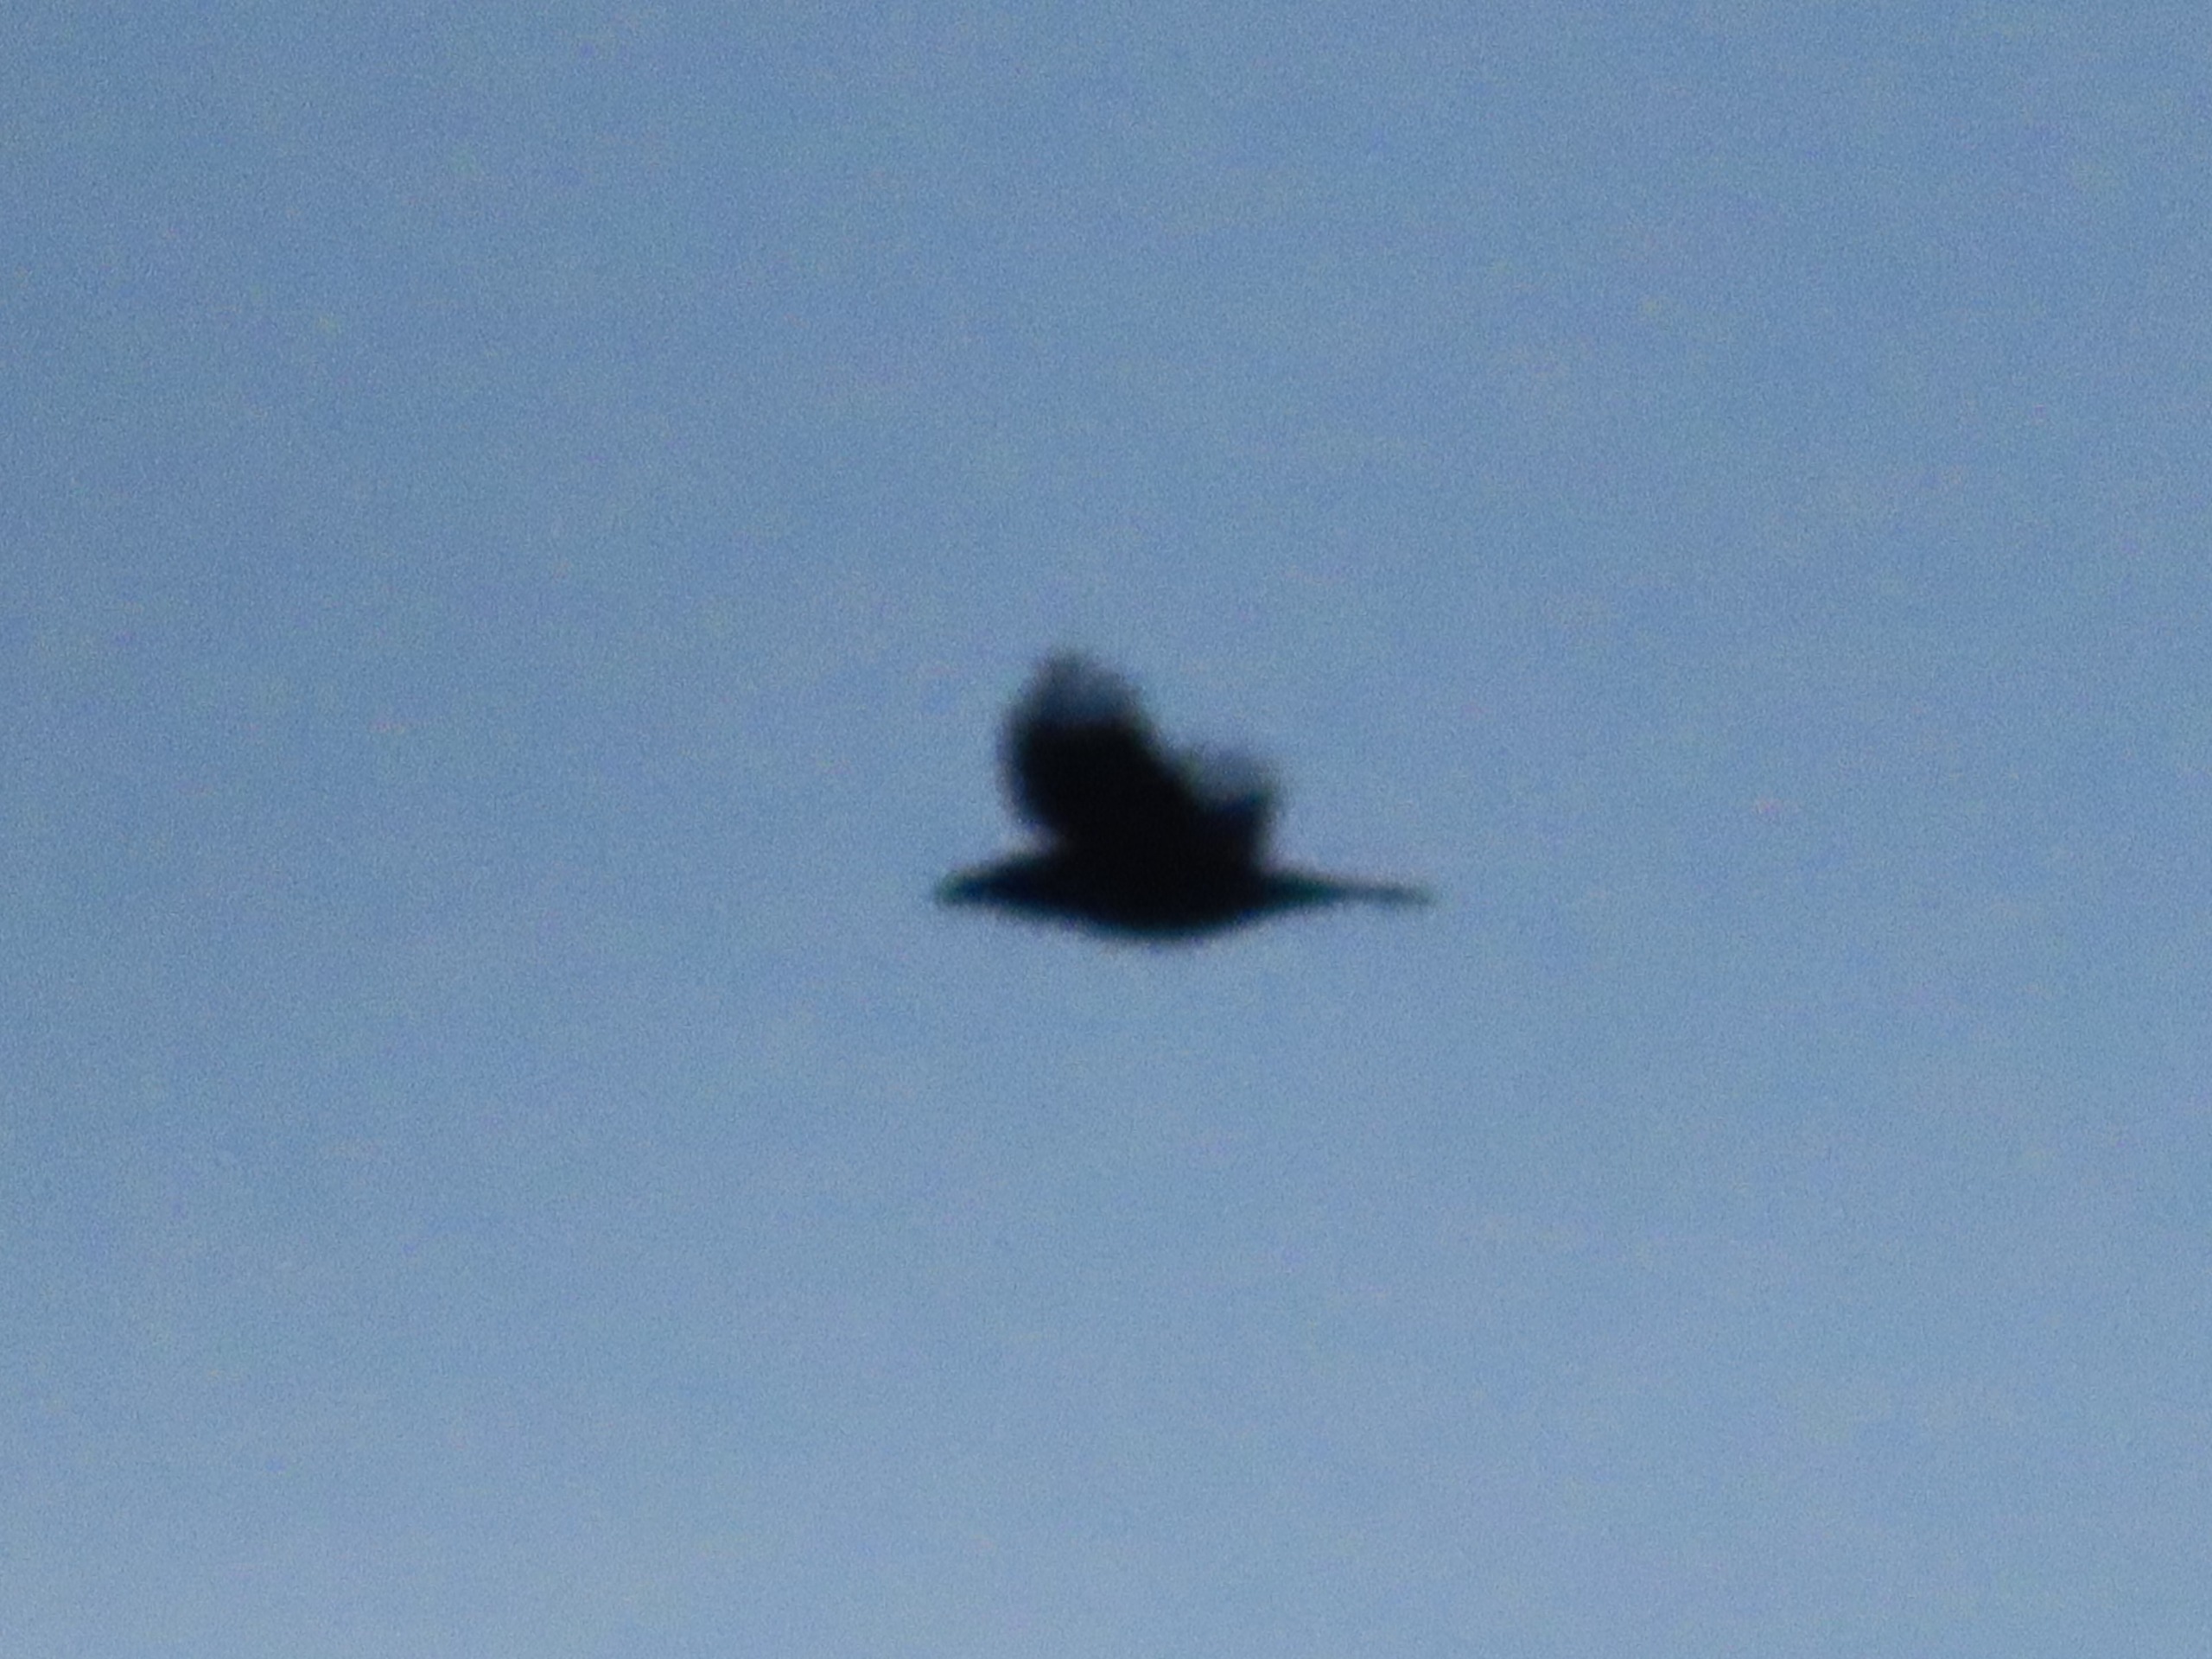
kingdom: Animalia
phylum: Chordata
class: Aves
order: Passeriformes
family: Corvidae
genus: Corvus
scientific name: Corvus corax
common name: Ravn
